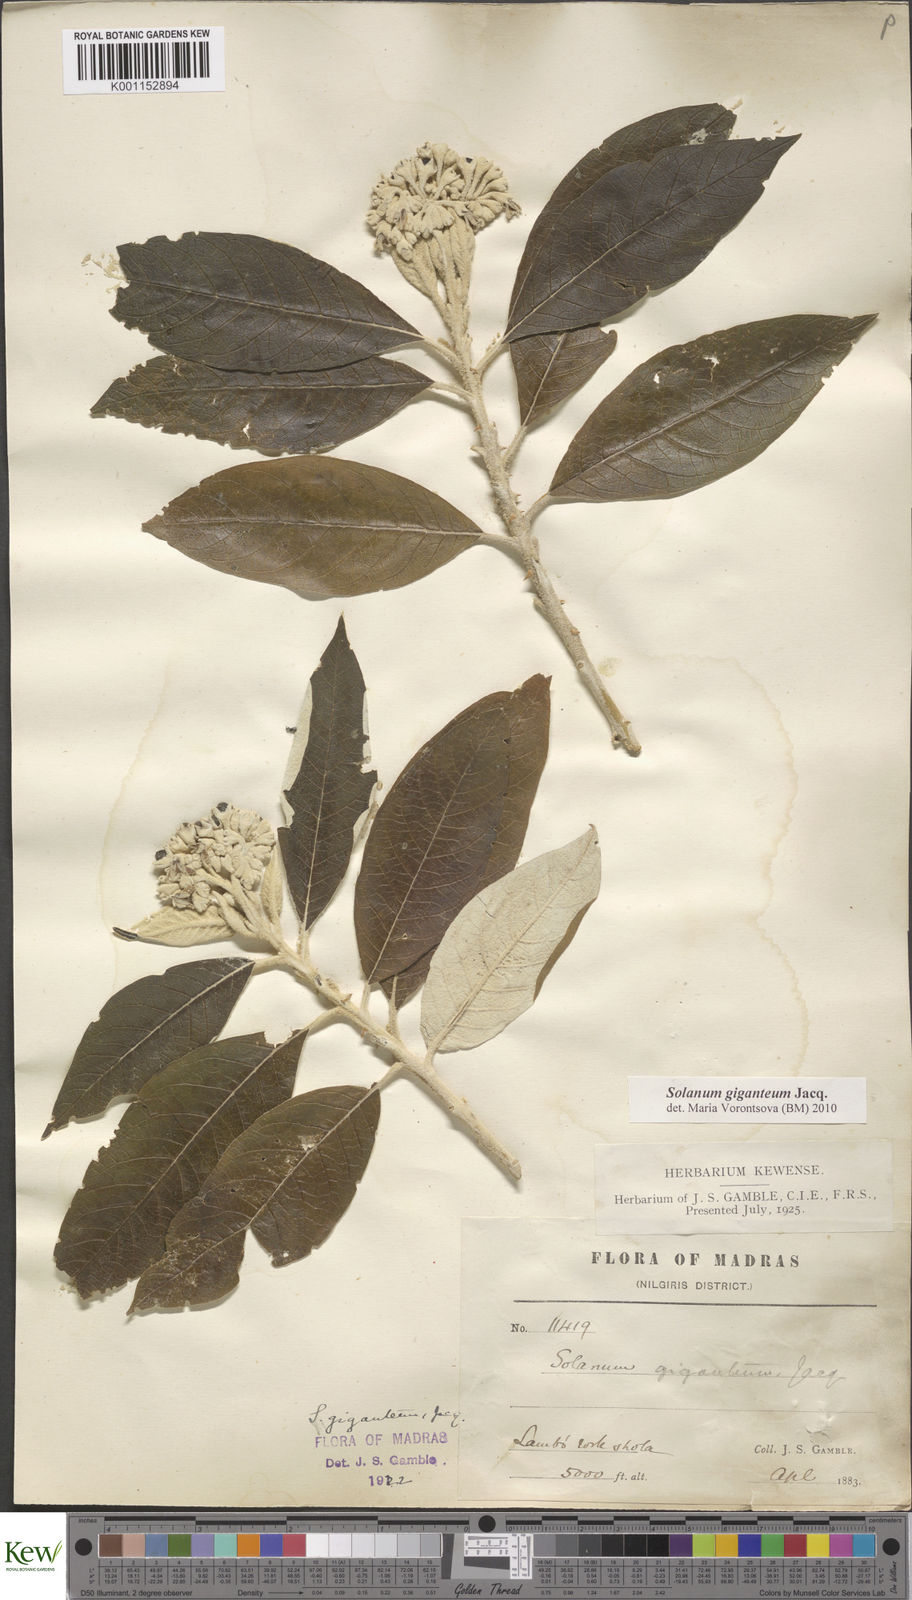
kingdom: Plantae
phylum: Tracheophyta
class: Magnoliopsida
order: Solanales
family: Solanaceae
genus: Solanum
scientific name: Solanum giganteum
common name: Healing-leaf-tree
